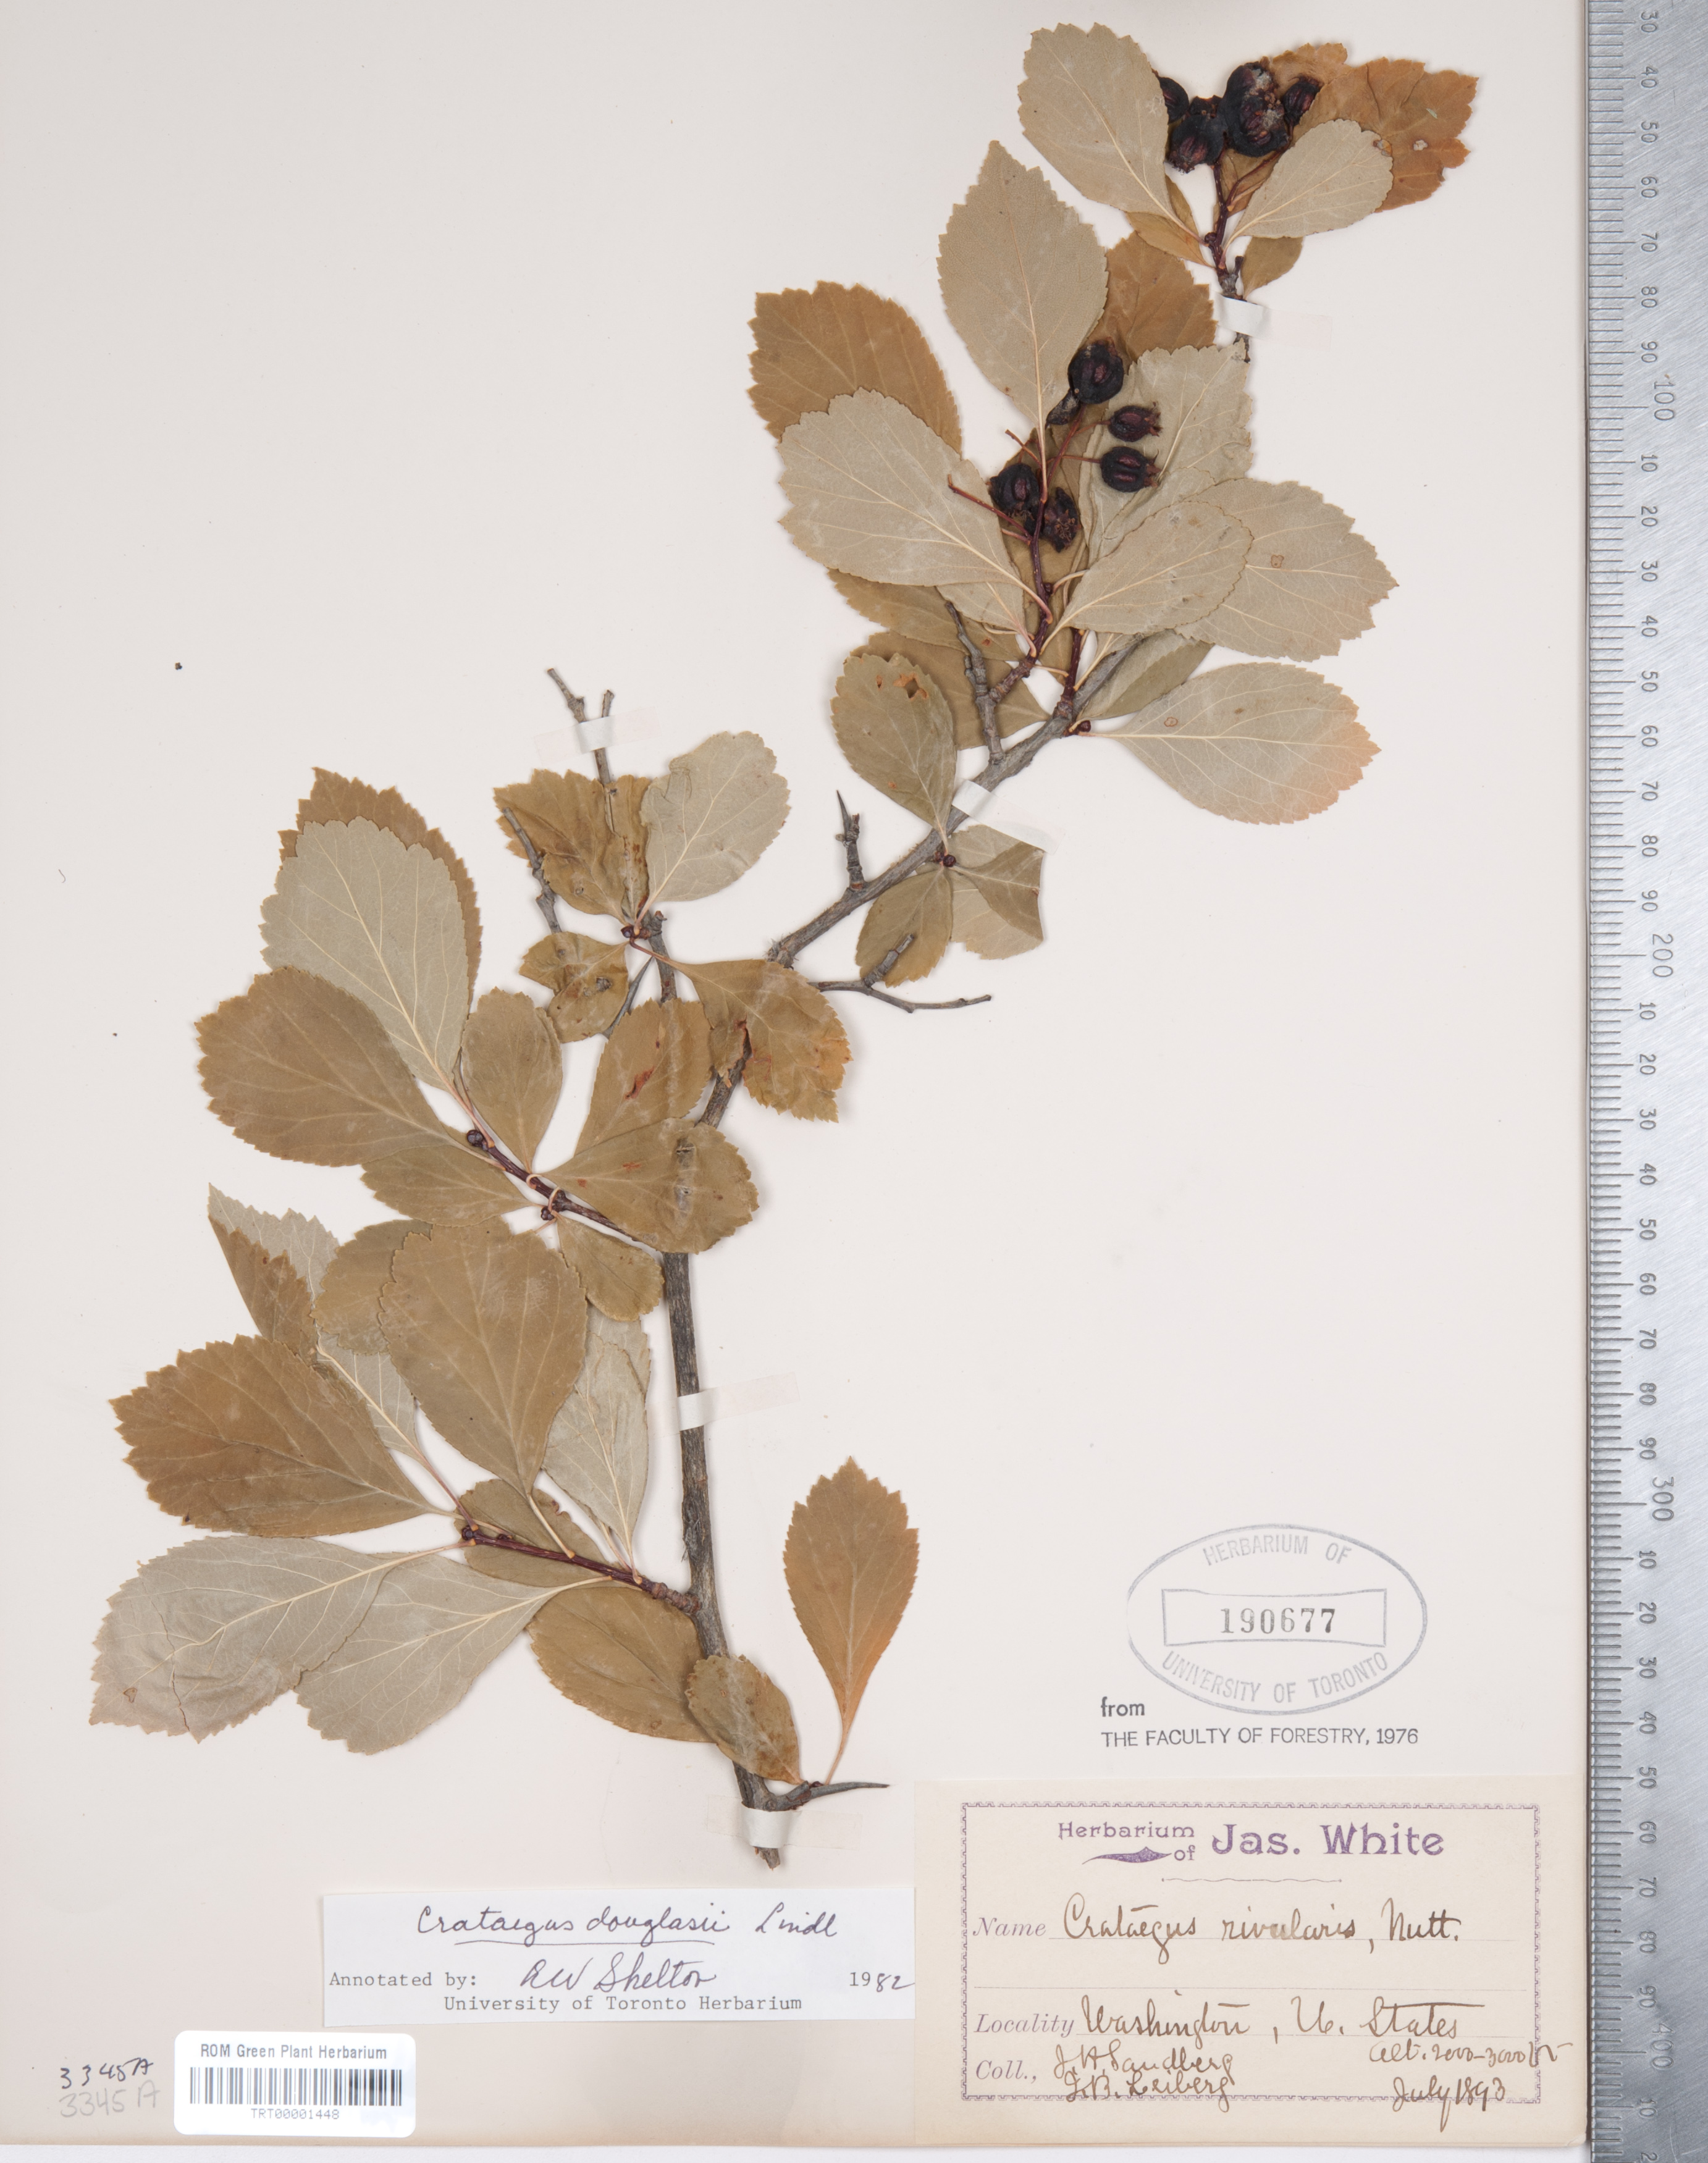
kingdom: Plantae
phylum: Tracheophyta
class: Magnoliopsida
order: Rosales
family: Rosaceae
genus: Crataegus
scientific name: Crataegus douglasii
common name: Black hawthorn
